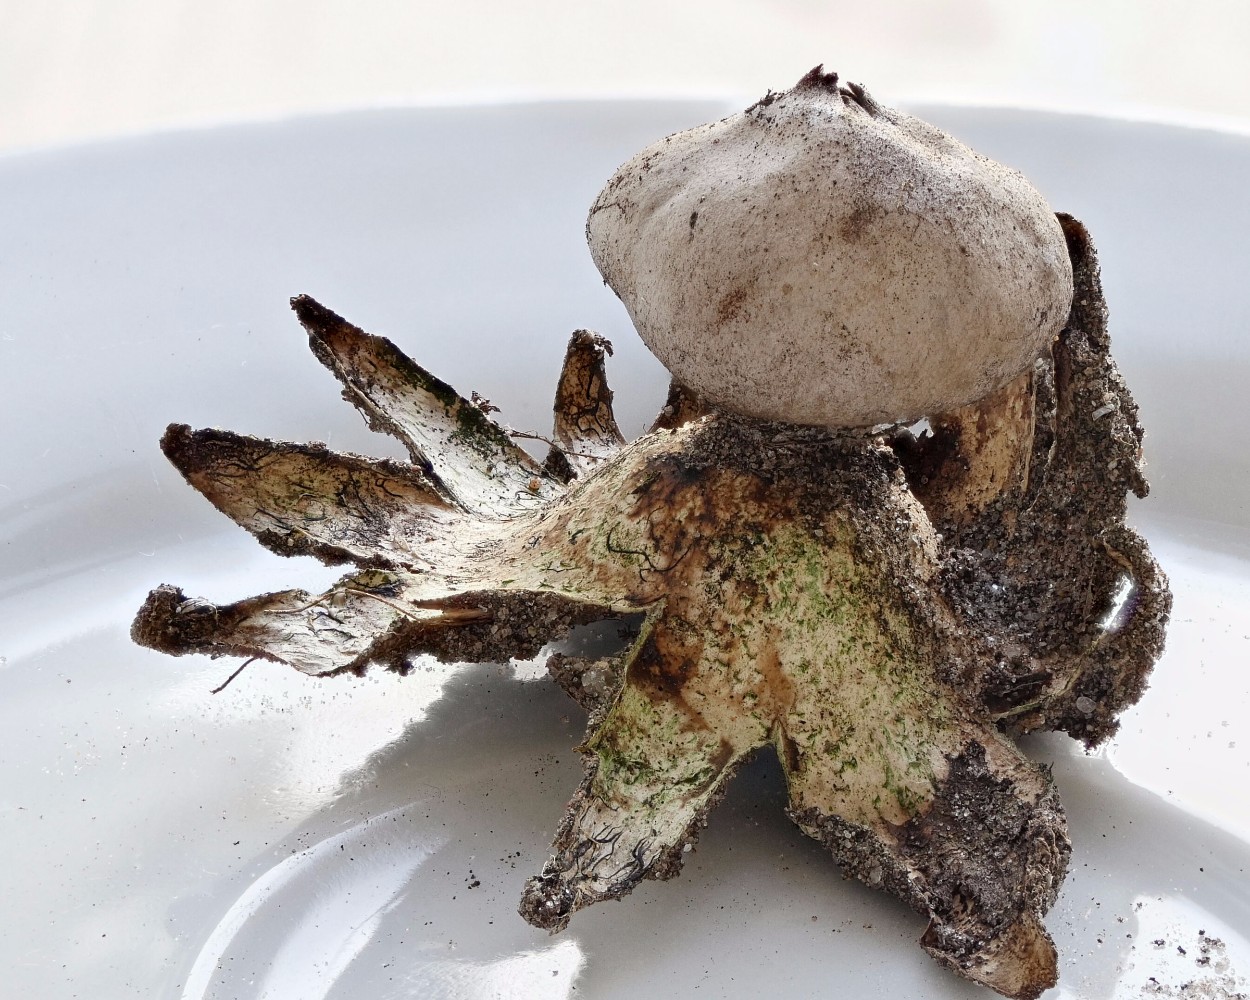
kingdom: Fungi
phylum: Basidiomycota
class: Agaricomycetes
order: Geastrales
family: Geastraceae
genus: Geastrum
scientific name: Geastrum
